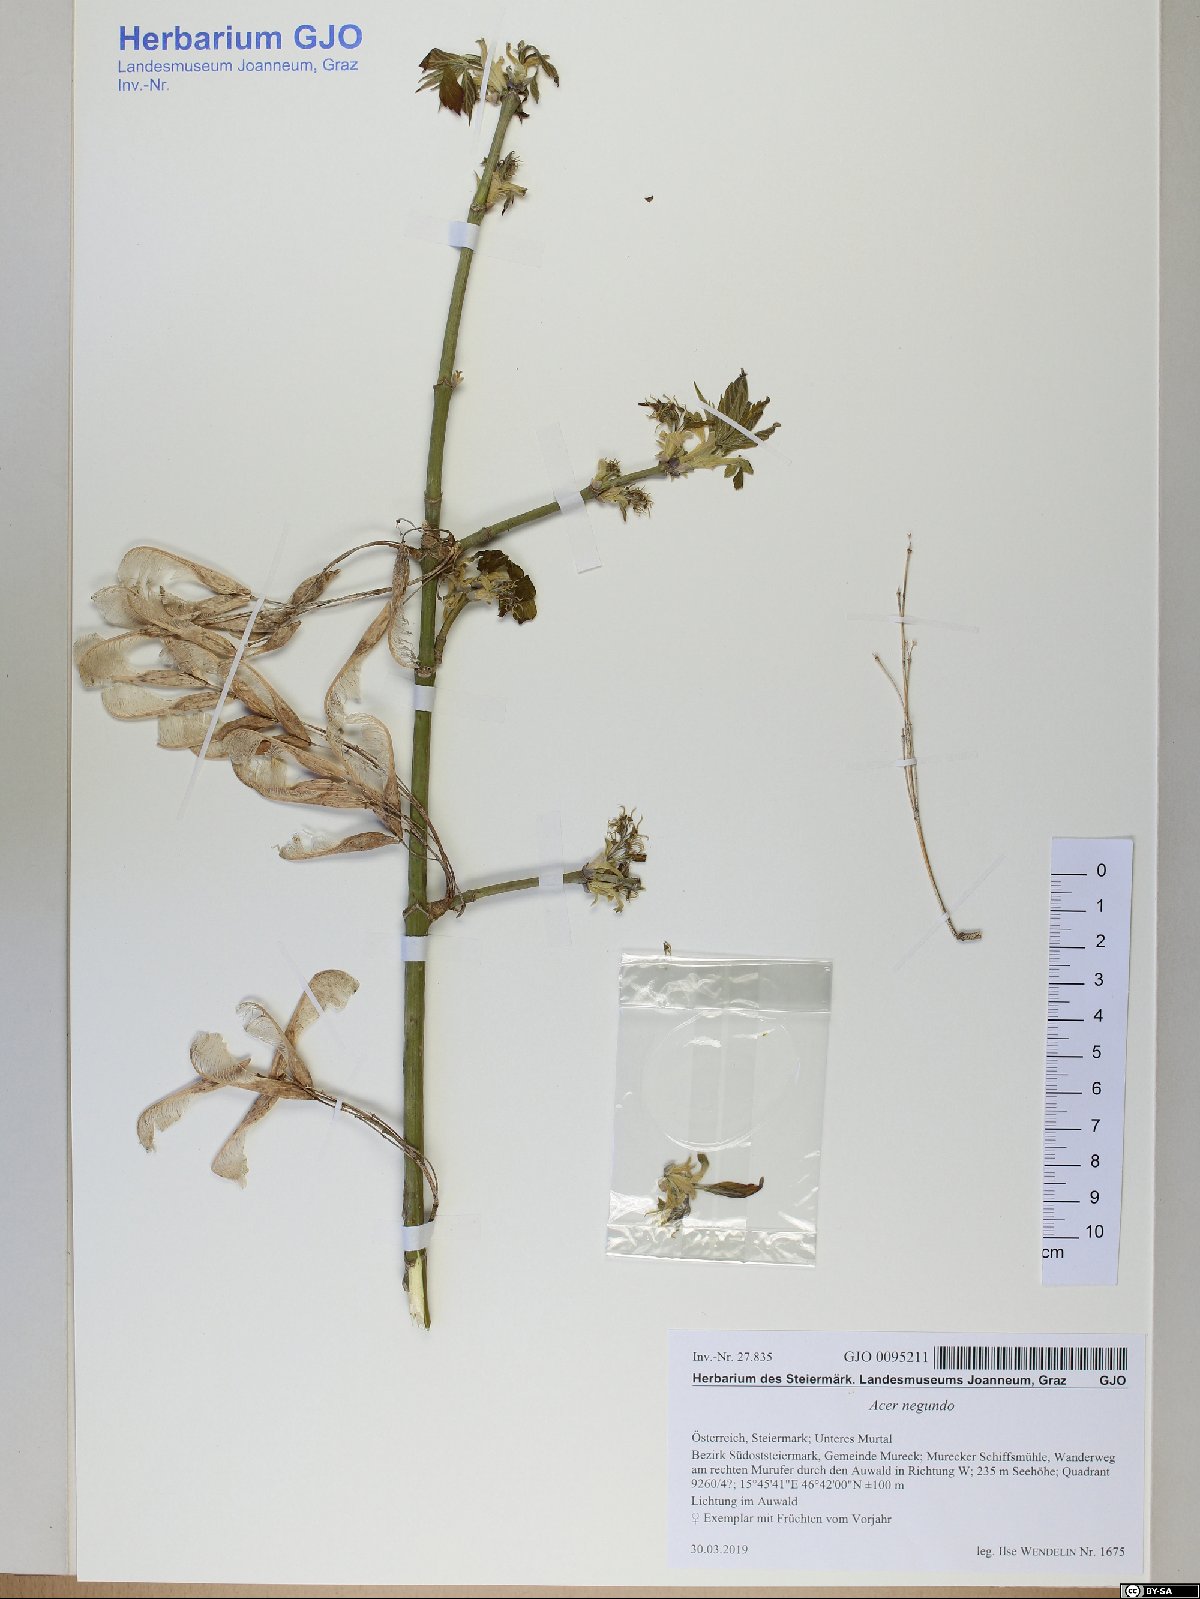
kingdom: Plantae
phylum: Tracheophyta
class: Magnoliopsida
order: Sapindales
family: Sapindaceae
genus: Acer
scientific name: Acer negundo
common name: Ashleaf maple
